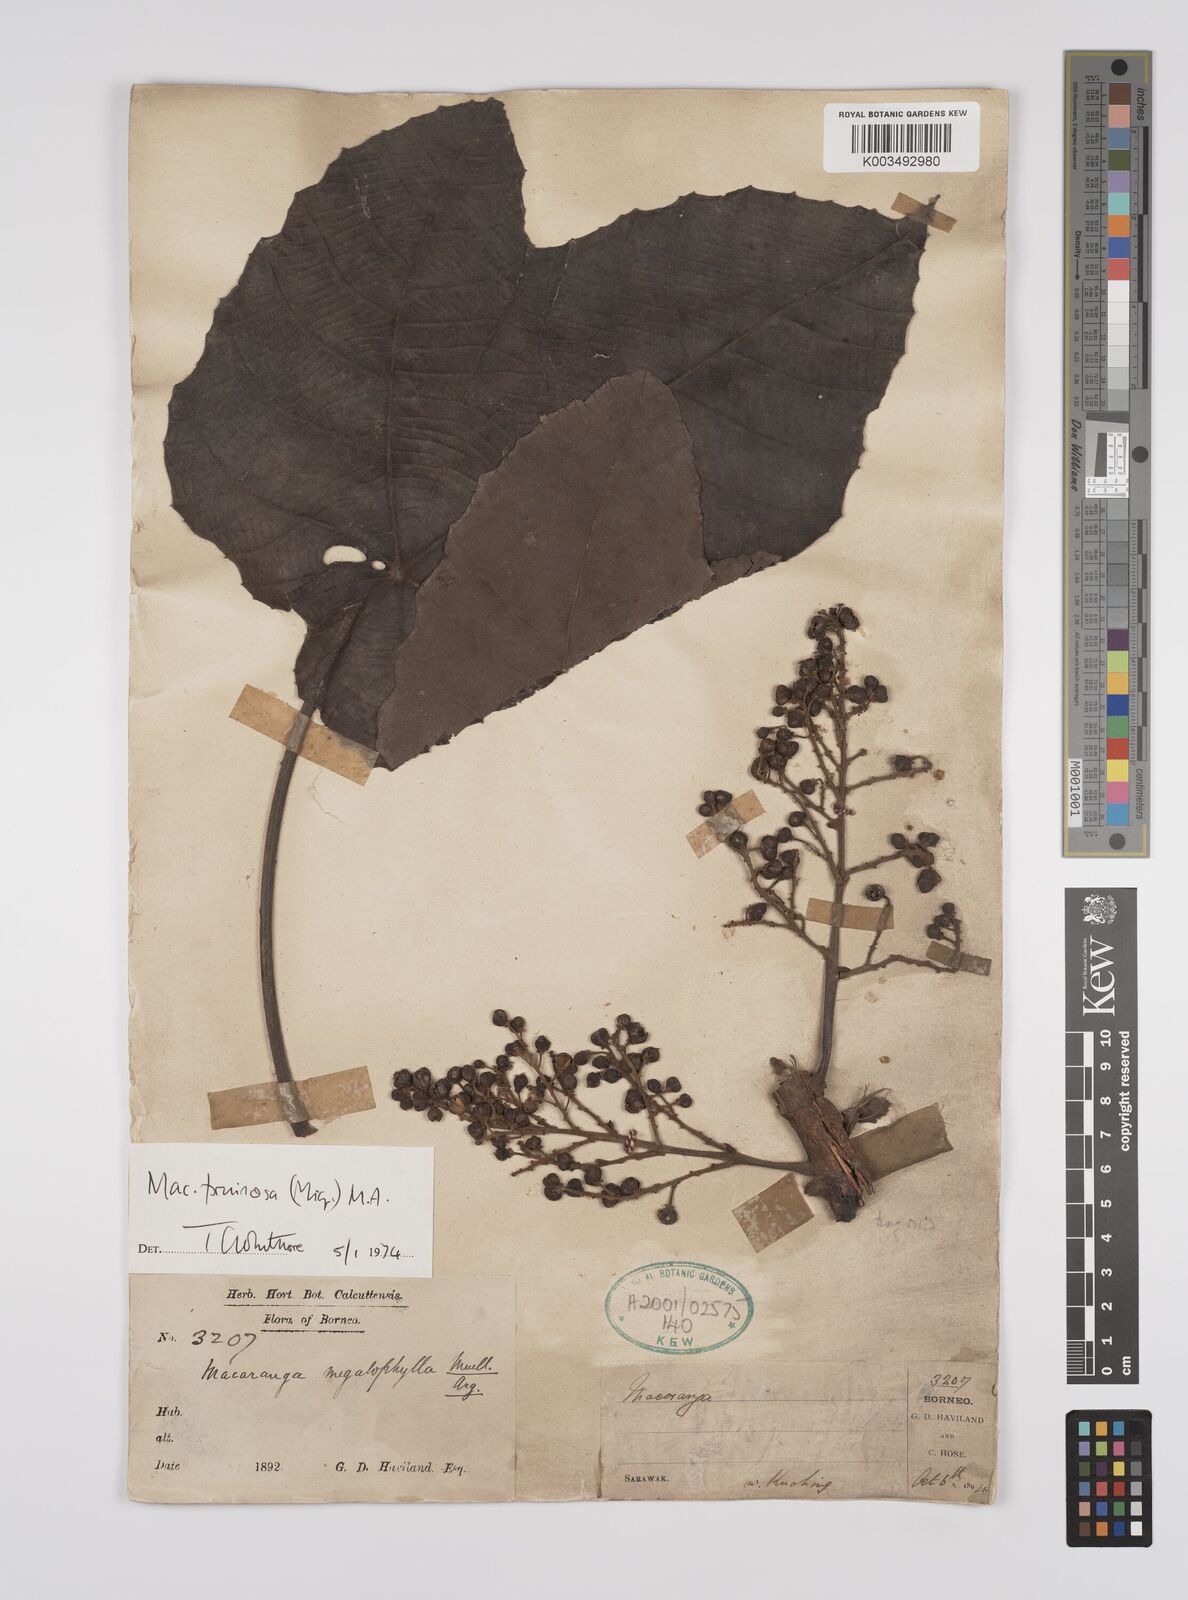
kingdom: Plantae
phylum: Tracheophyta
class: Magnoliopsida
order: Malpighiales
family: Euphorbiaceae
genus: Macaranga
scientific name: Macaranga pruinosa
